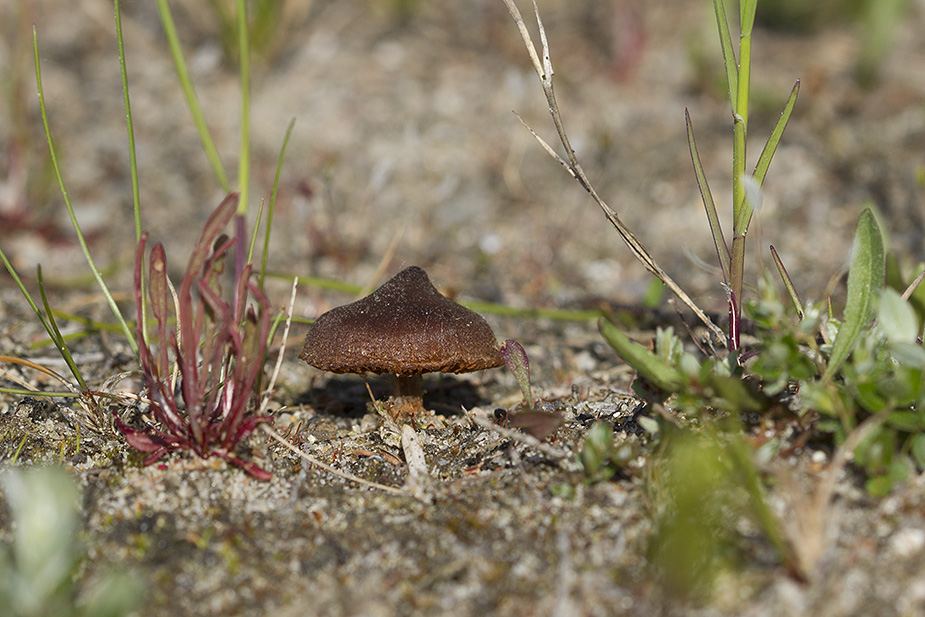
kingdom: Fungi
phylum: Basidiomycota
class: Agaricomycetes
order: Agaricales
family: Cortinariaceae
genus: Cortinarius
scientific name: Cortinarius suberythrinus
